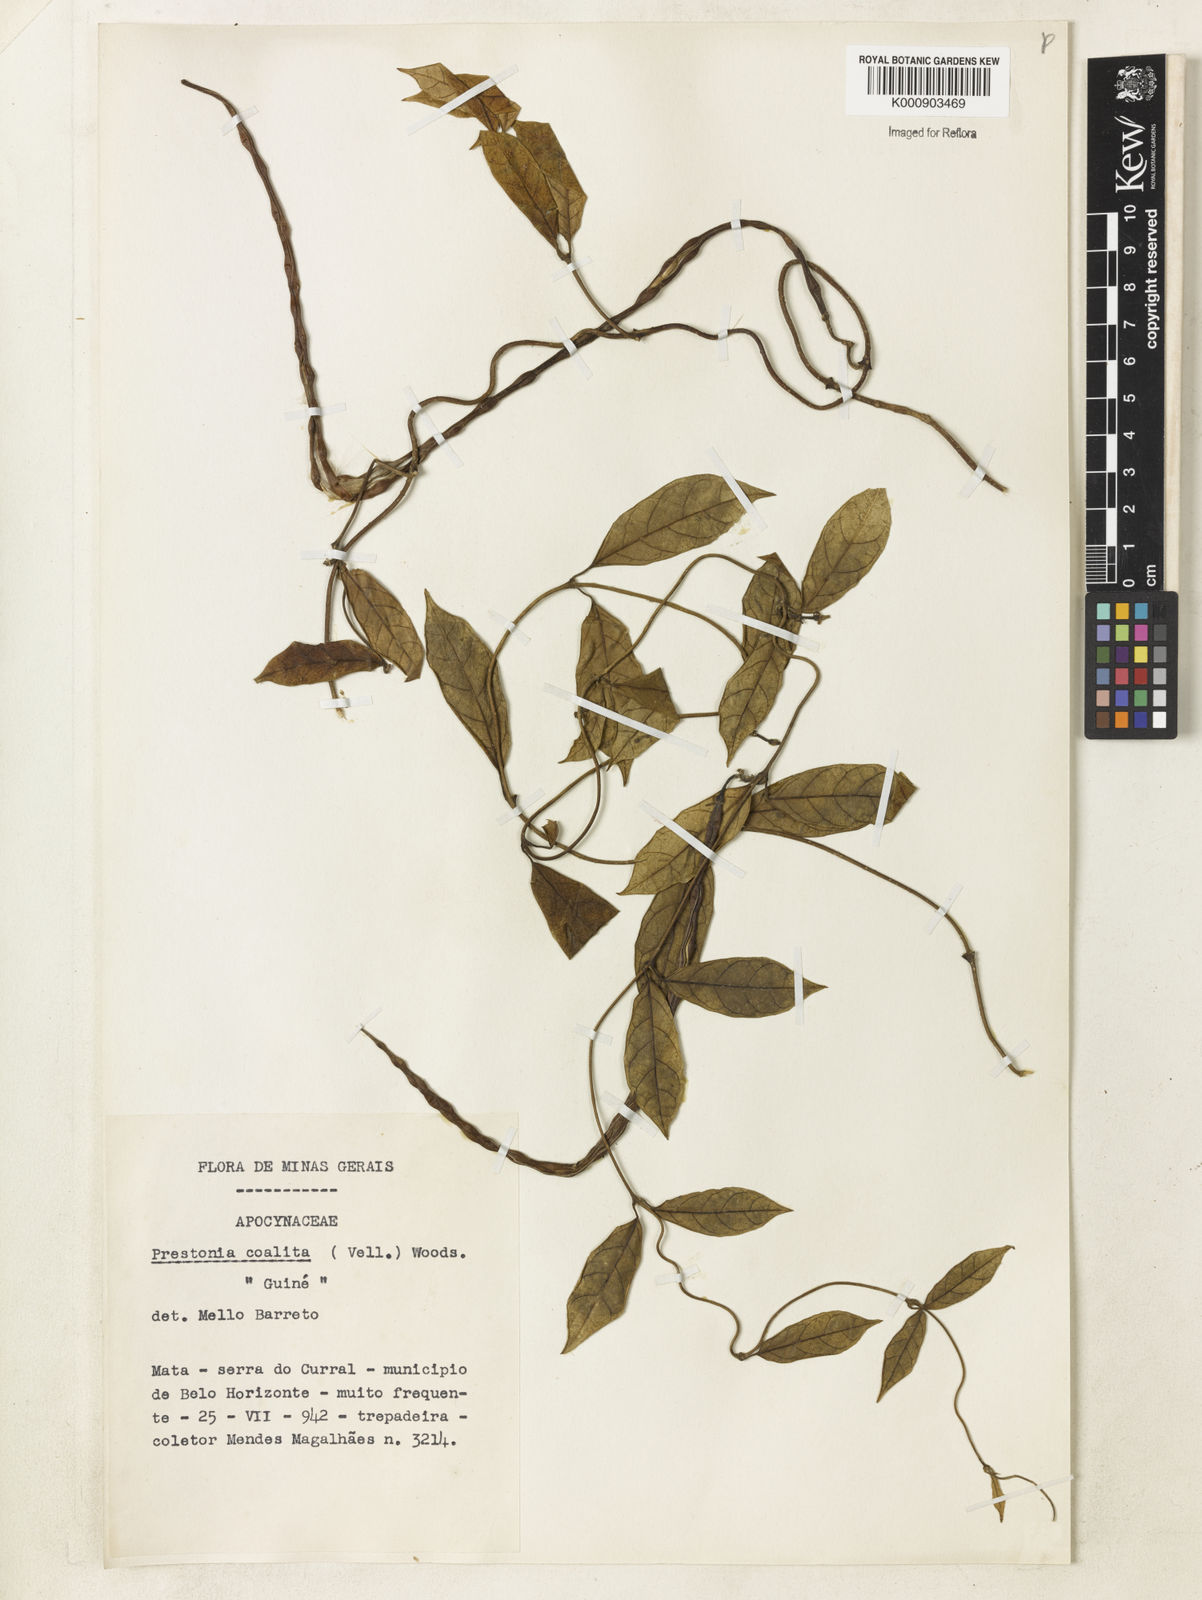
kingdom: Plantae
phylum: Tracheophyta
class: Magnoliopsida
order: Gentianales
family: Apocynaceae
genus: Prestonia
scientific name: Prestonia coalita
